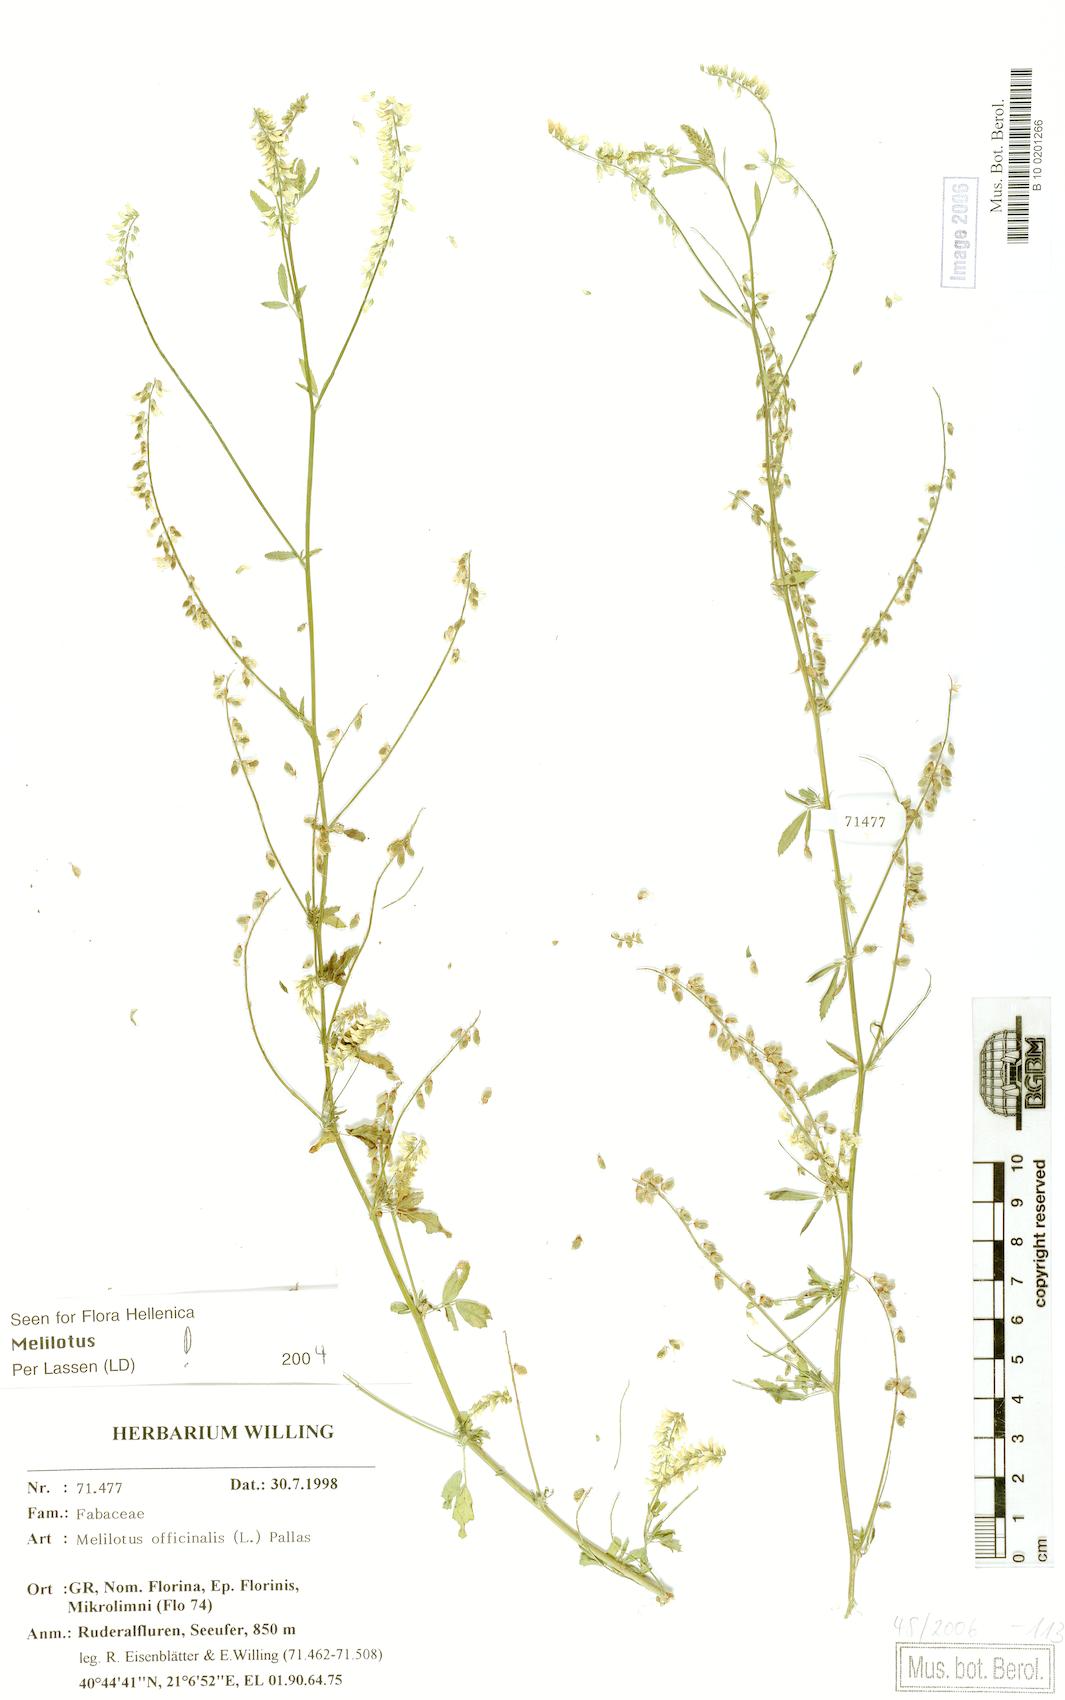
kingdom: Plantae
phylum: Tracheophyta
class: Magnoliopsida
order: Fabales
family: Fabaceae
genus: Melilotus
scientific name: Melilotus officinalis
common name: Sweetclover
